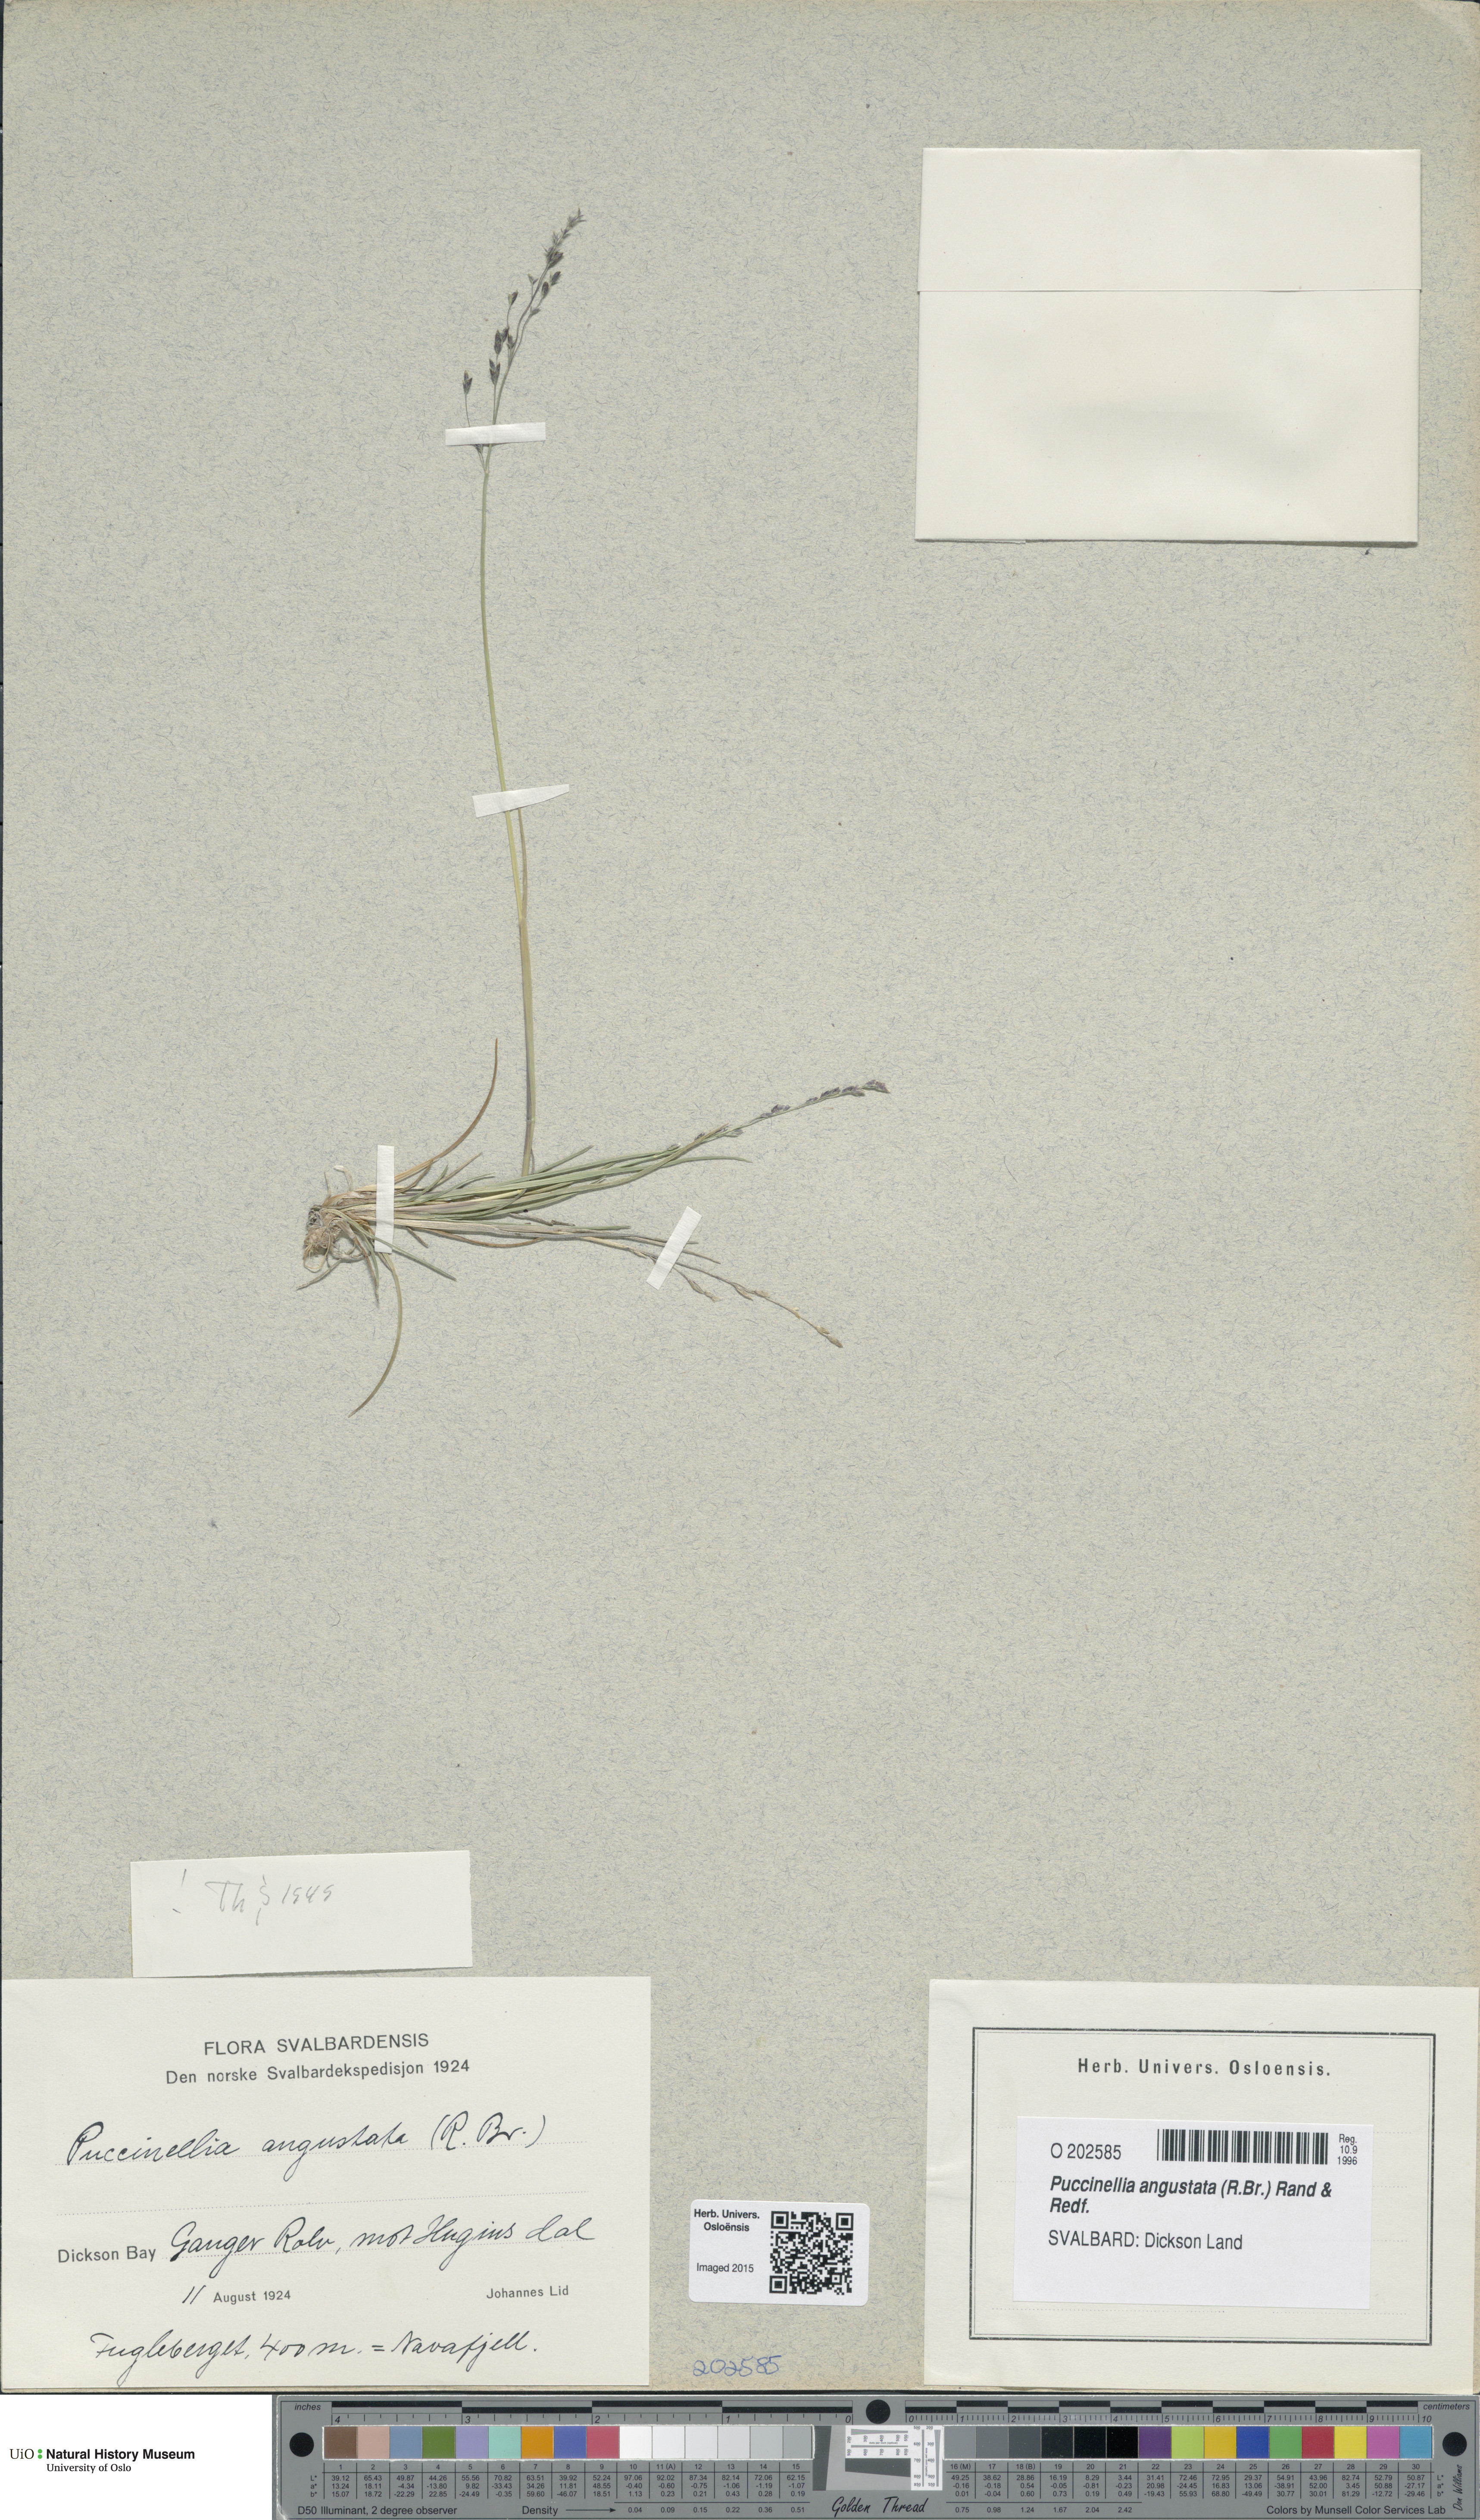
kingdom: Plantae
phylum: Tracheophyta
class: Liliopsida
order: Poales
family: Poaceae
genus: Puccinellia
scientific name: Puccinellia angustata
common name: Narrow alkaligrass
